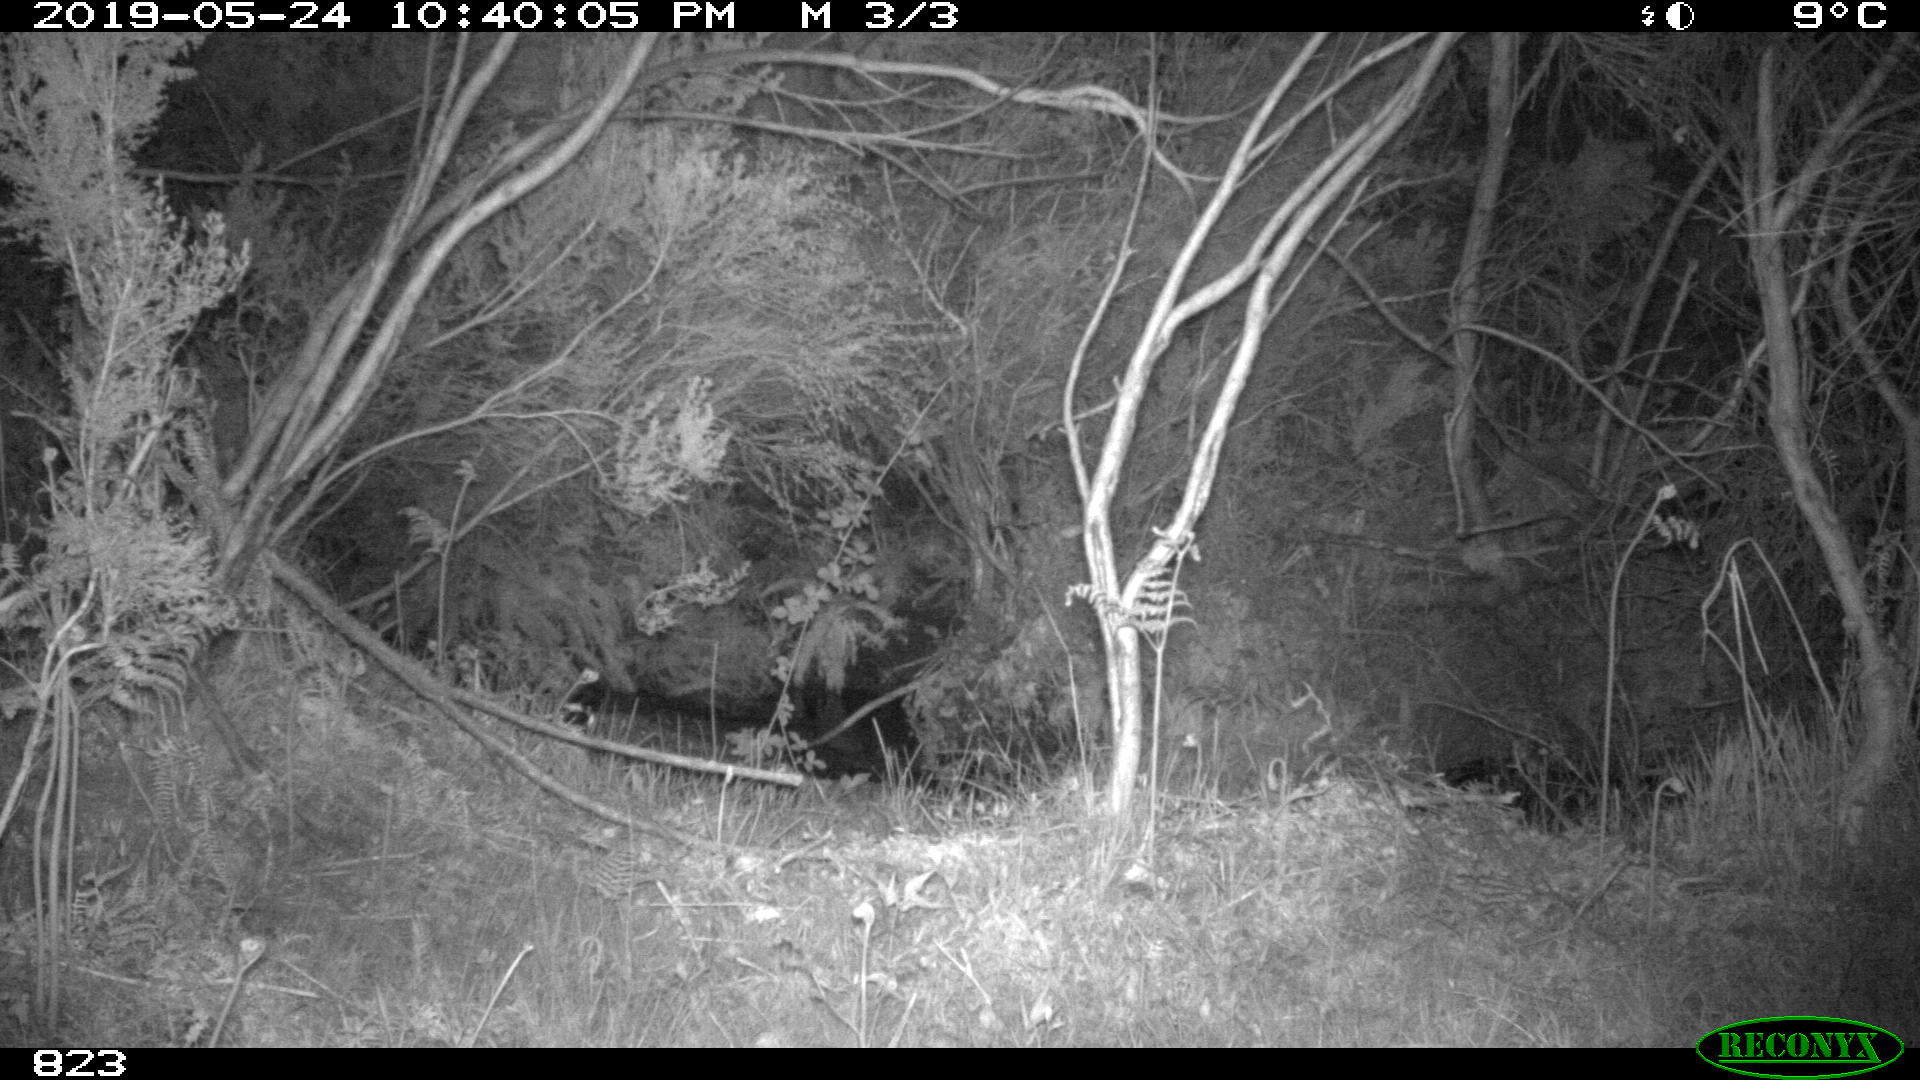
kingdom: Animalia
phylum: Chordata
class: Mammalia
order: Artiodactyla
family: Suidae
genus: Sus
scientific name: Sus scrofa
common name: Wild boar
